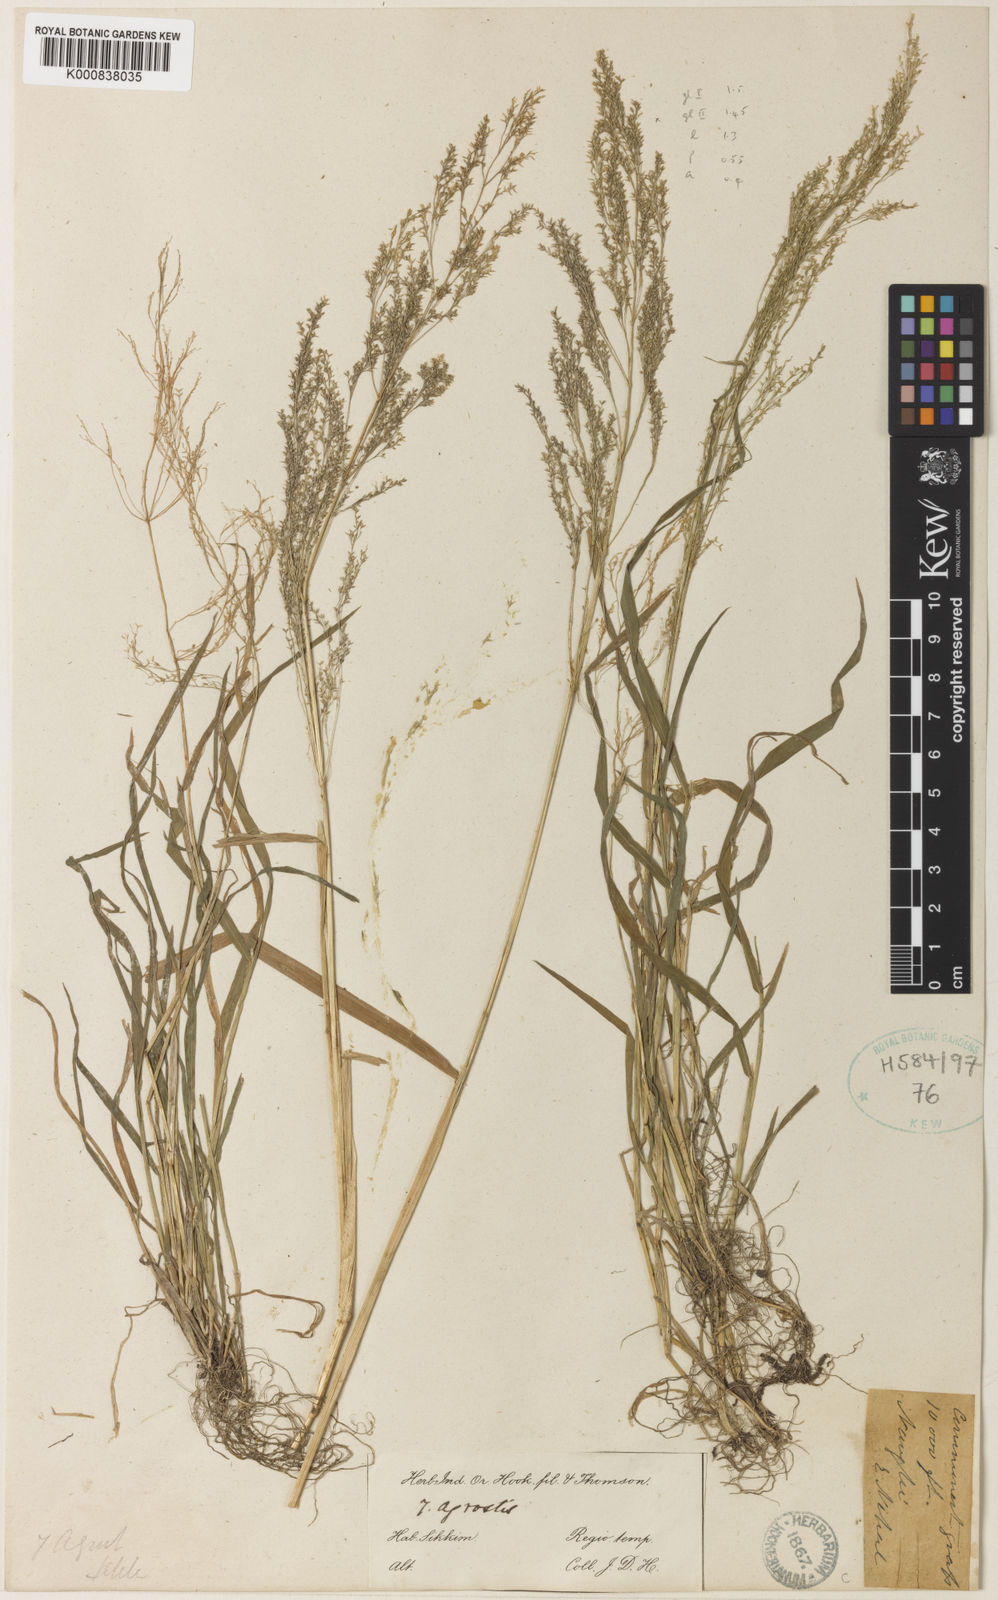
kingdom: Plantae
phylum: Tracheophyta
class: Liliopsida
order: Poales
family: Poaceae
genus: Agrostis
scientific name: Agrostis micrantha
